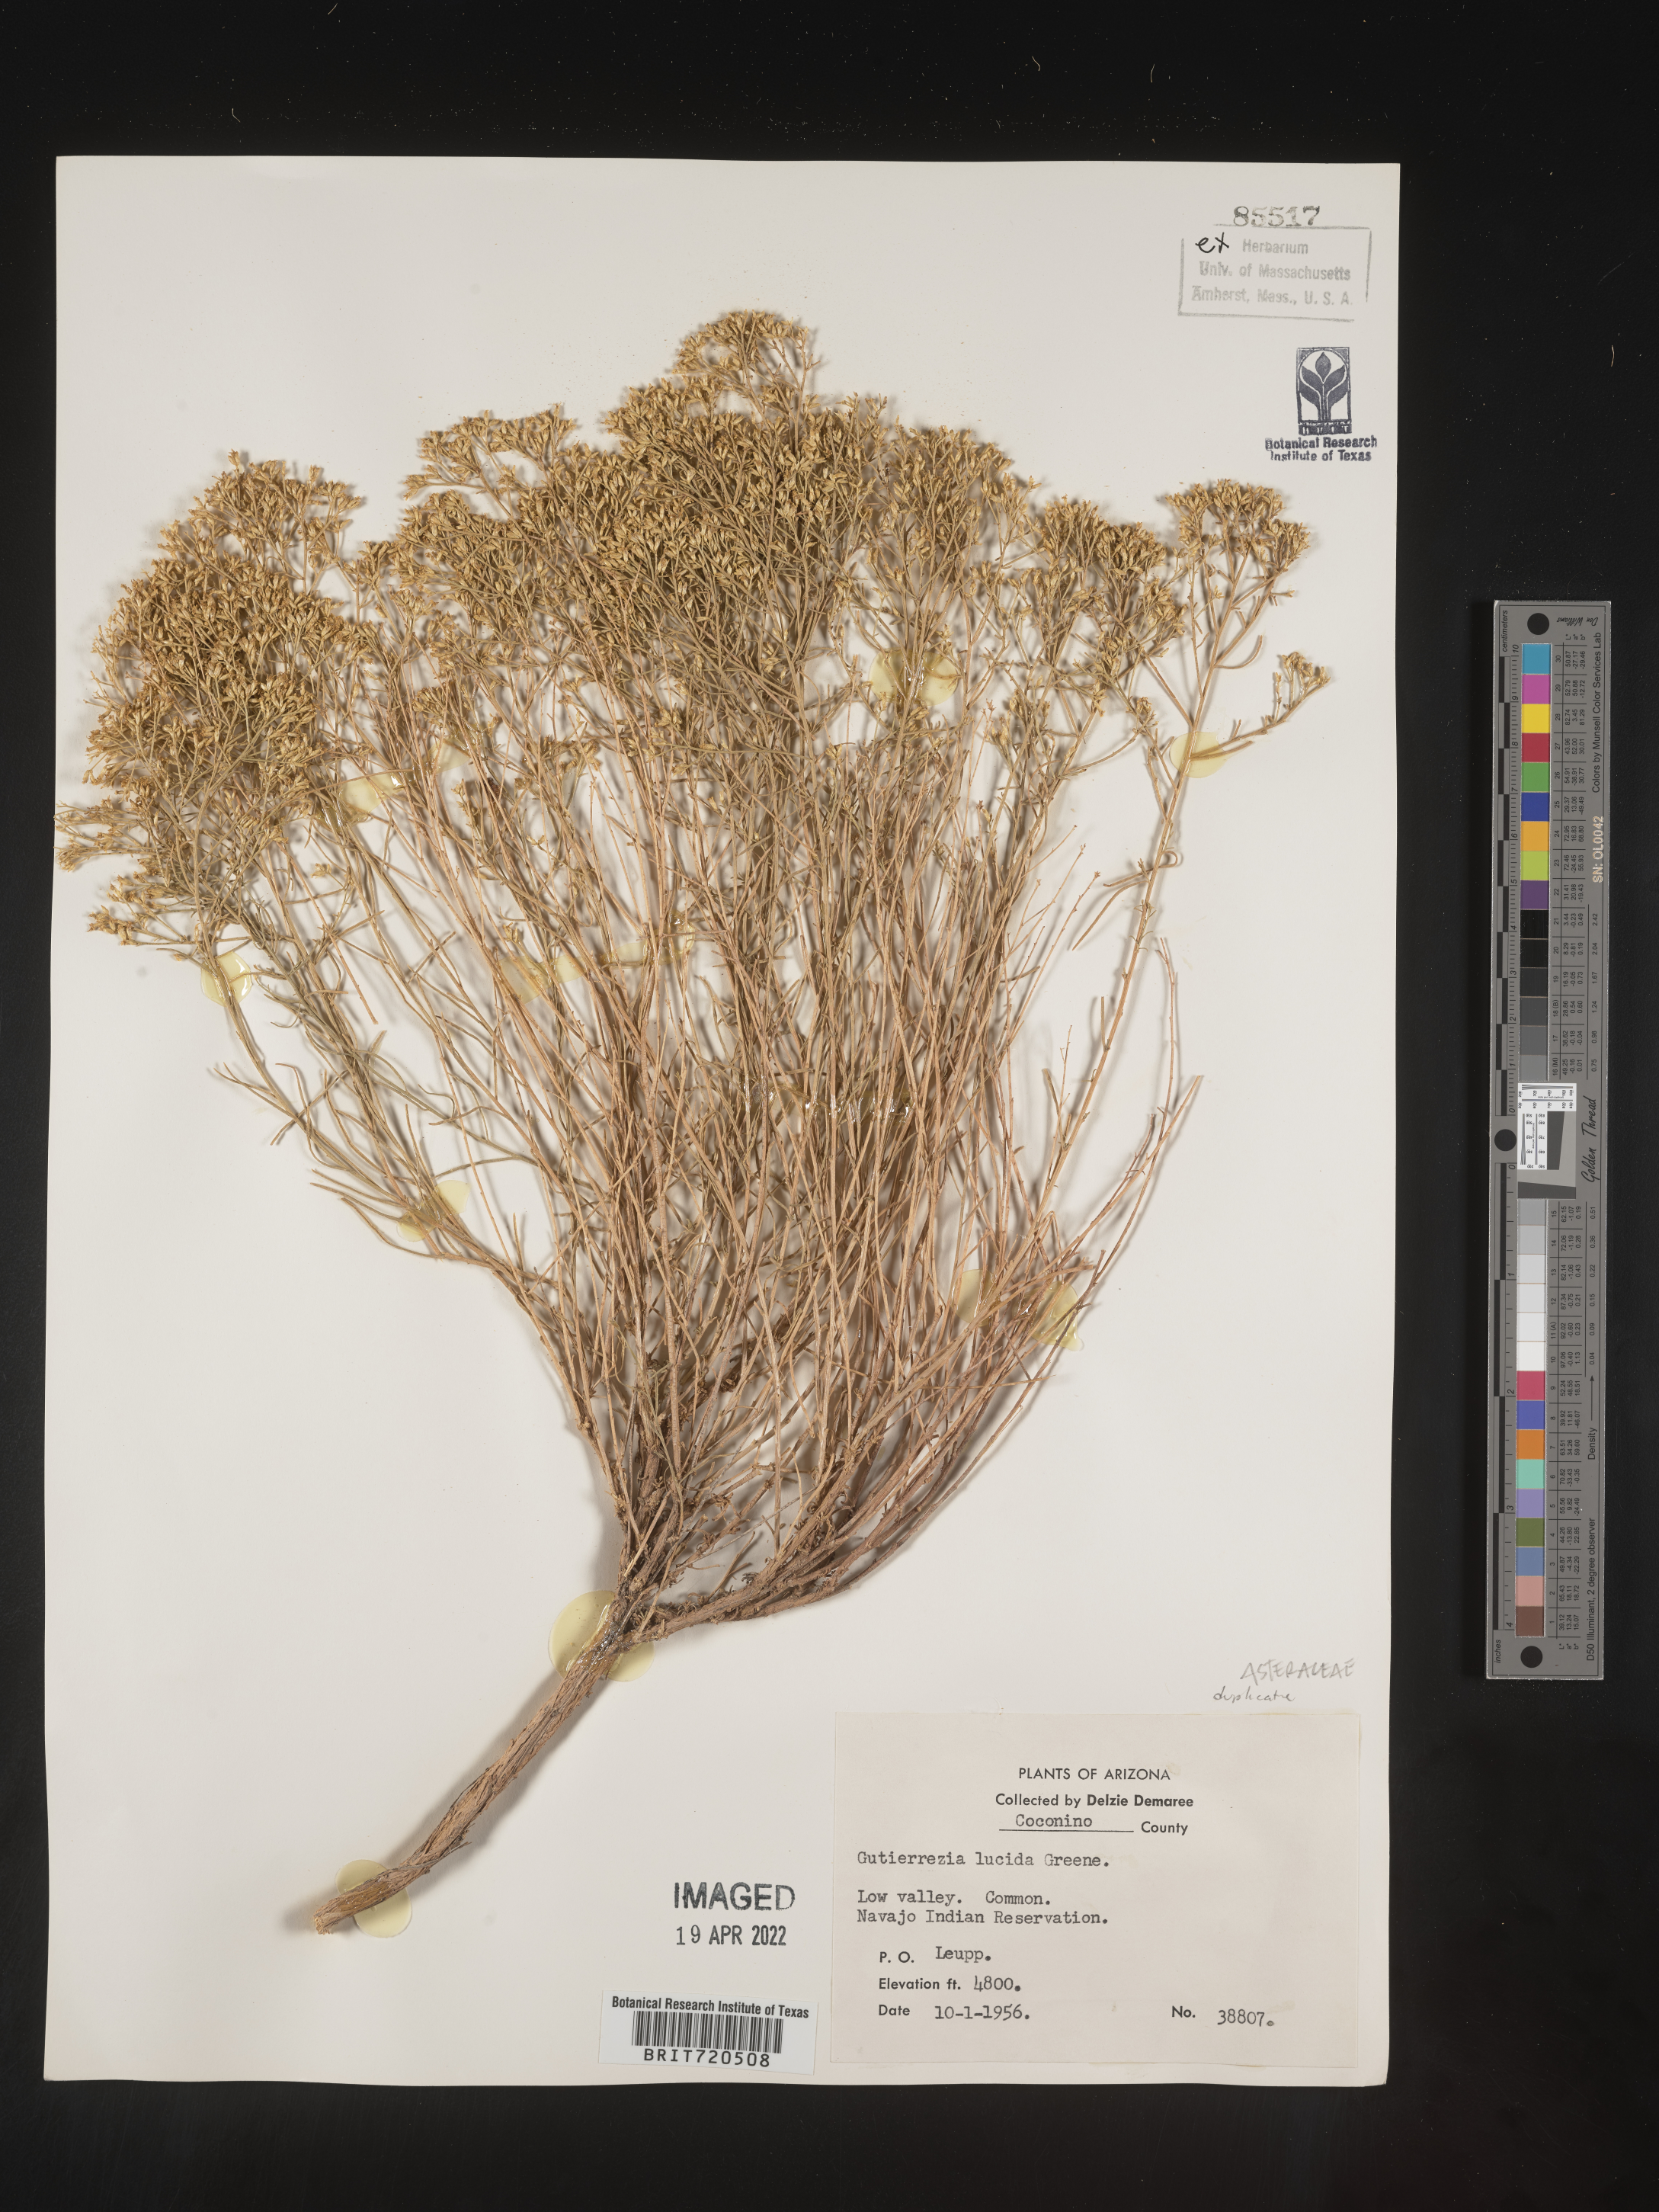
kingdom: Plantae
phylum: Tracheophyta
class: Magnoliopsida
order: Asterales
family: Asteraceae
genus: Gutierrezia
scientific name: Gutierrezia microcephala
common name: Thread snakeweed
